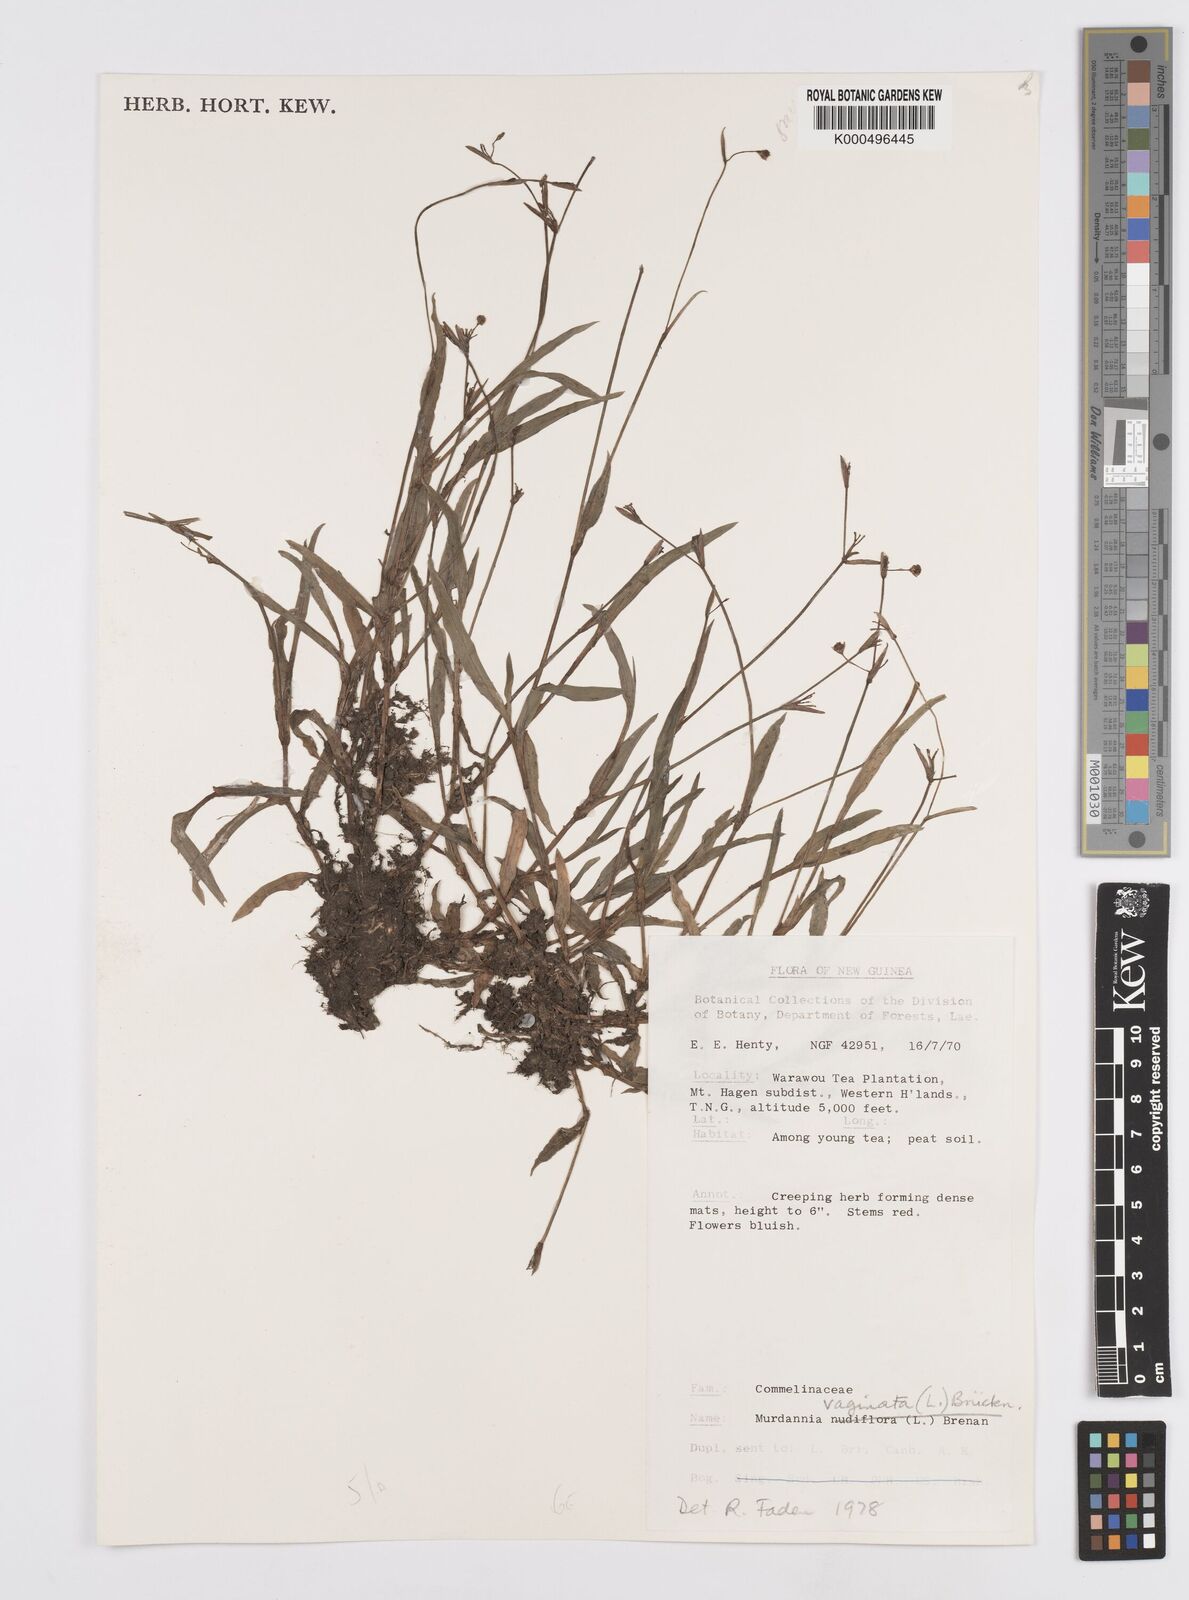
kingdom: Plantae
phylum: Tracheophyta
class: Liliopsida
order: Commelinales
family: Commelinaceae
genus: Murdannia
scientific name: Murdannia
